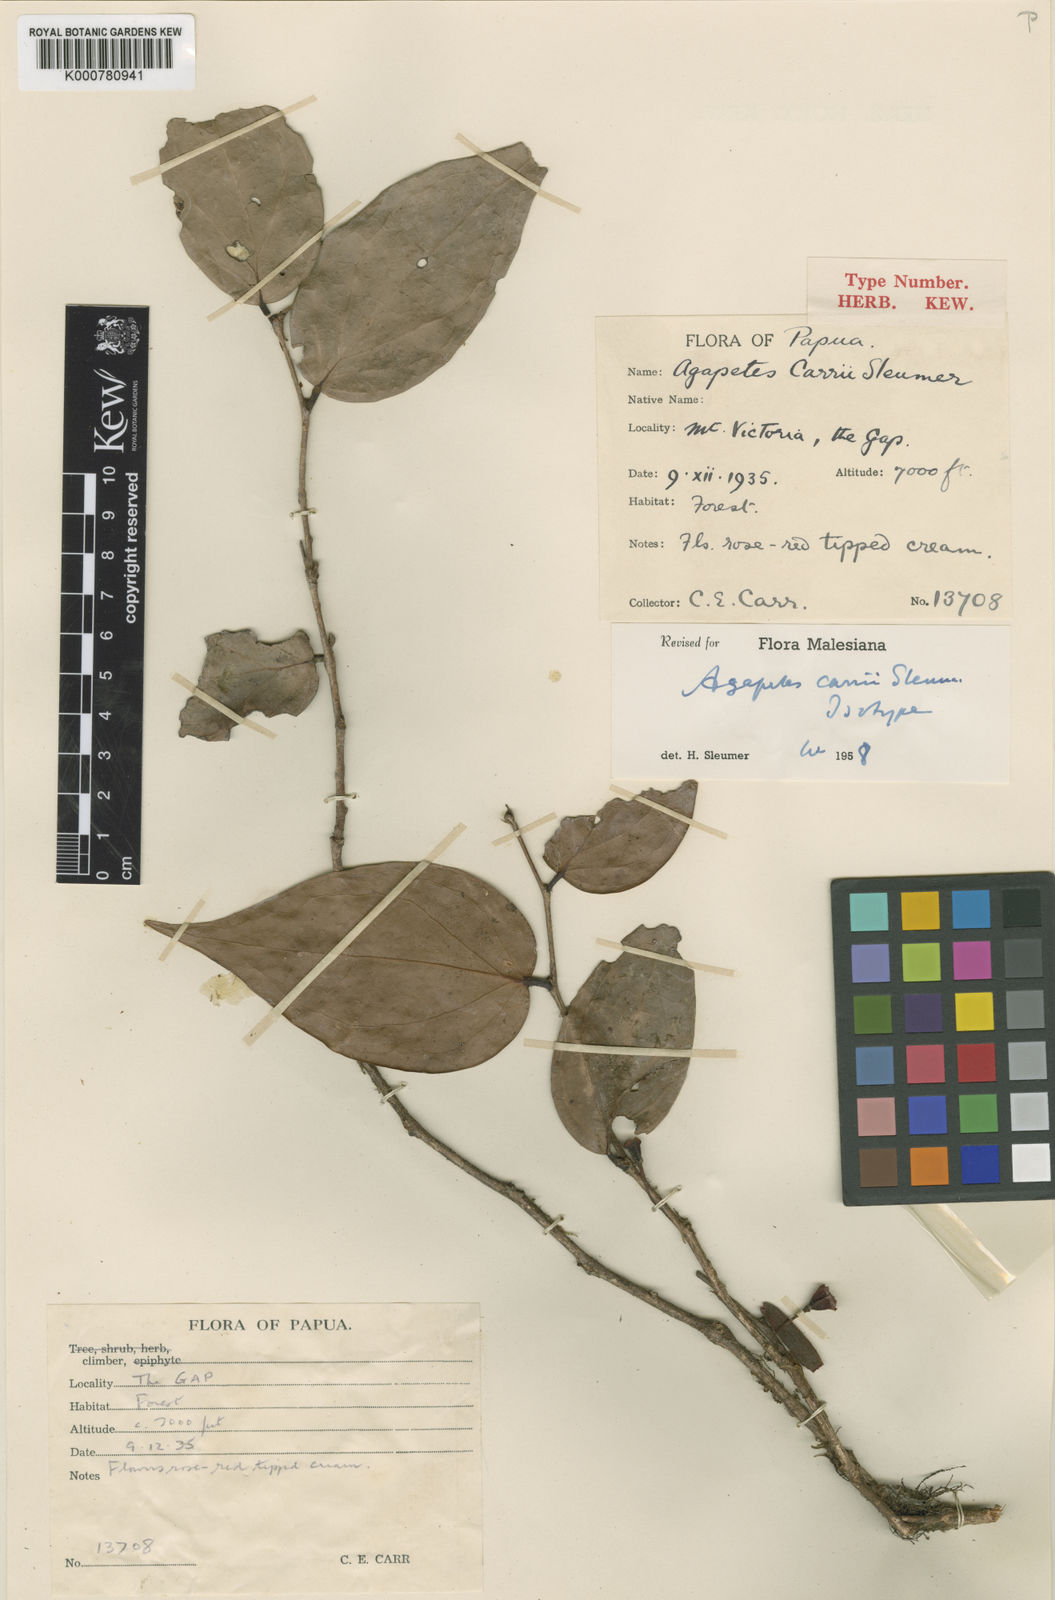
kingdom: Plantae
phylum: Tracheophyta
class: Magnoliopsida
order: Ericales
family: Ericaceae
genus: Paphia
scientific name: Paphia carrii
